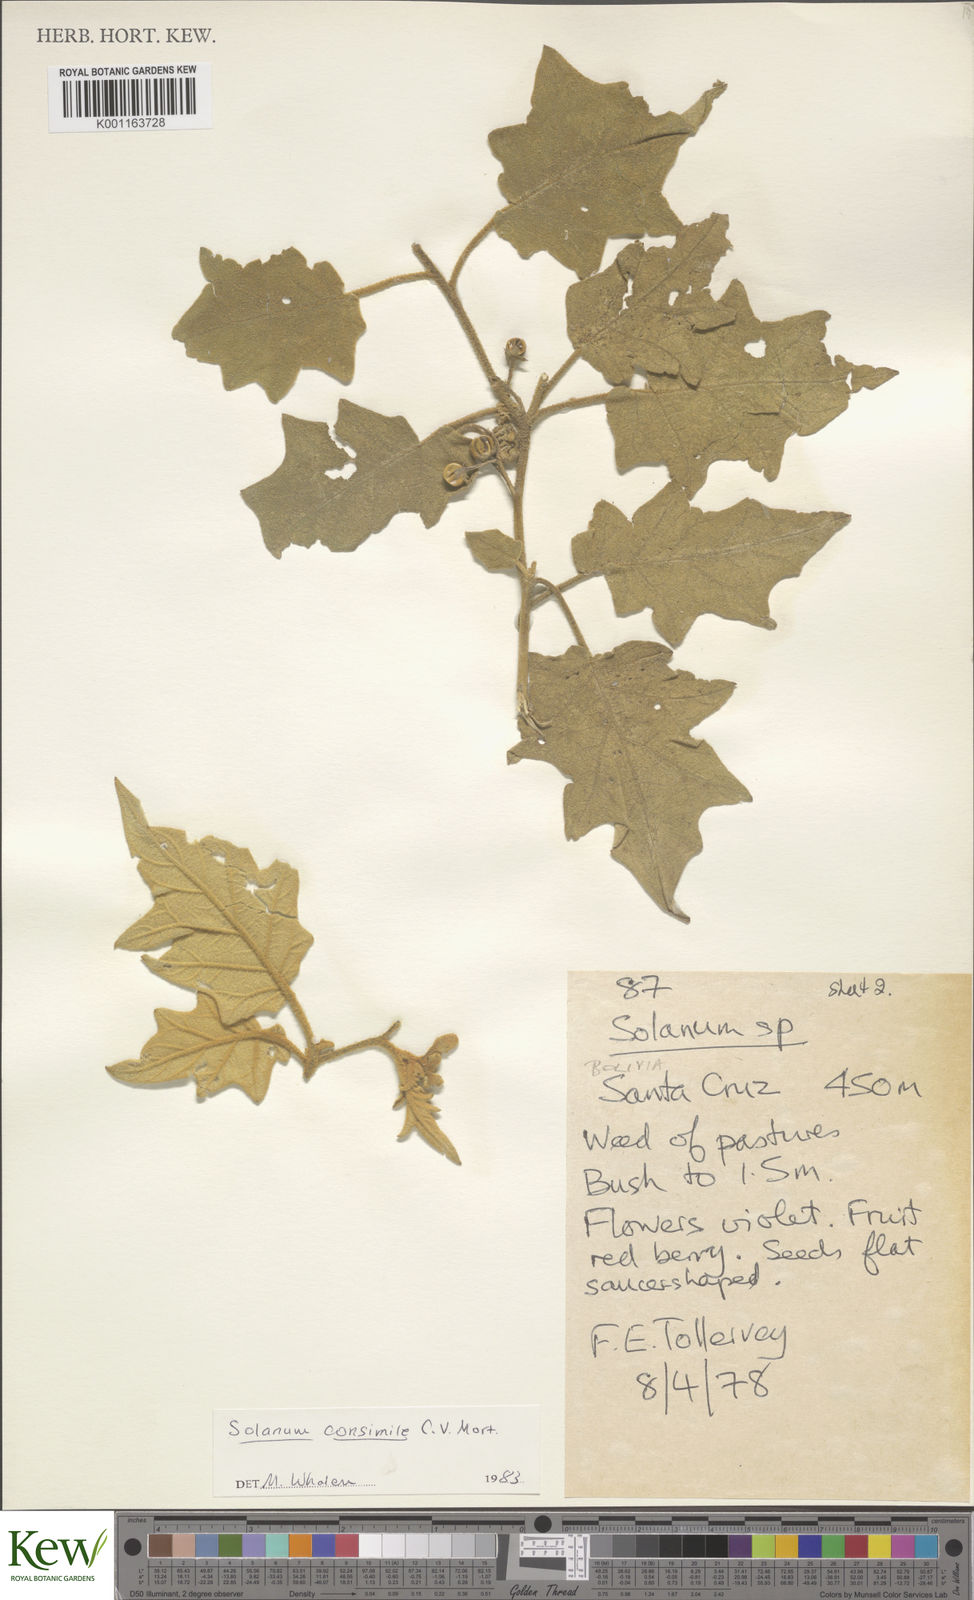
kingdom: Plantae
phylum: Tracheophyta
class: Magnoliopsida
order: Solanales
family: Solanaceae
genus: Solanum
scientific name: Solanum consimile
